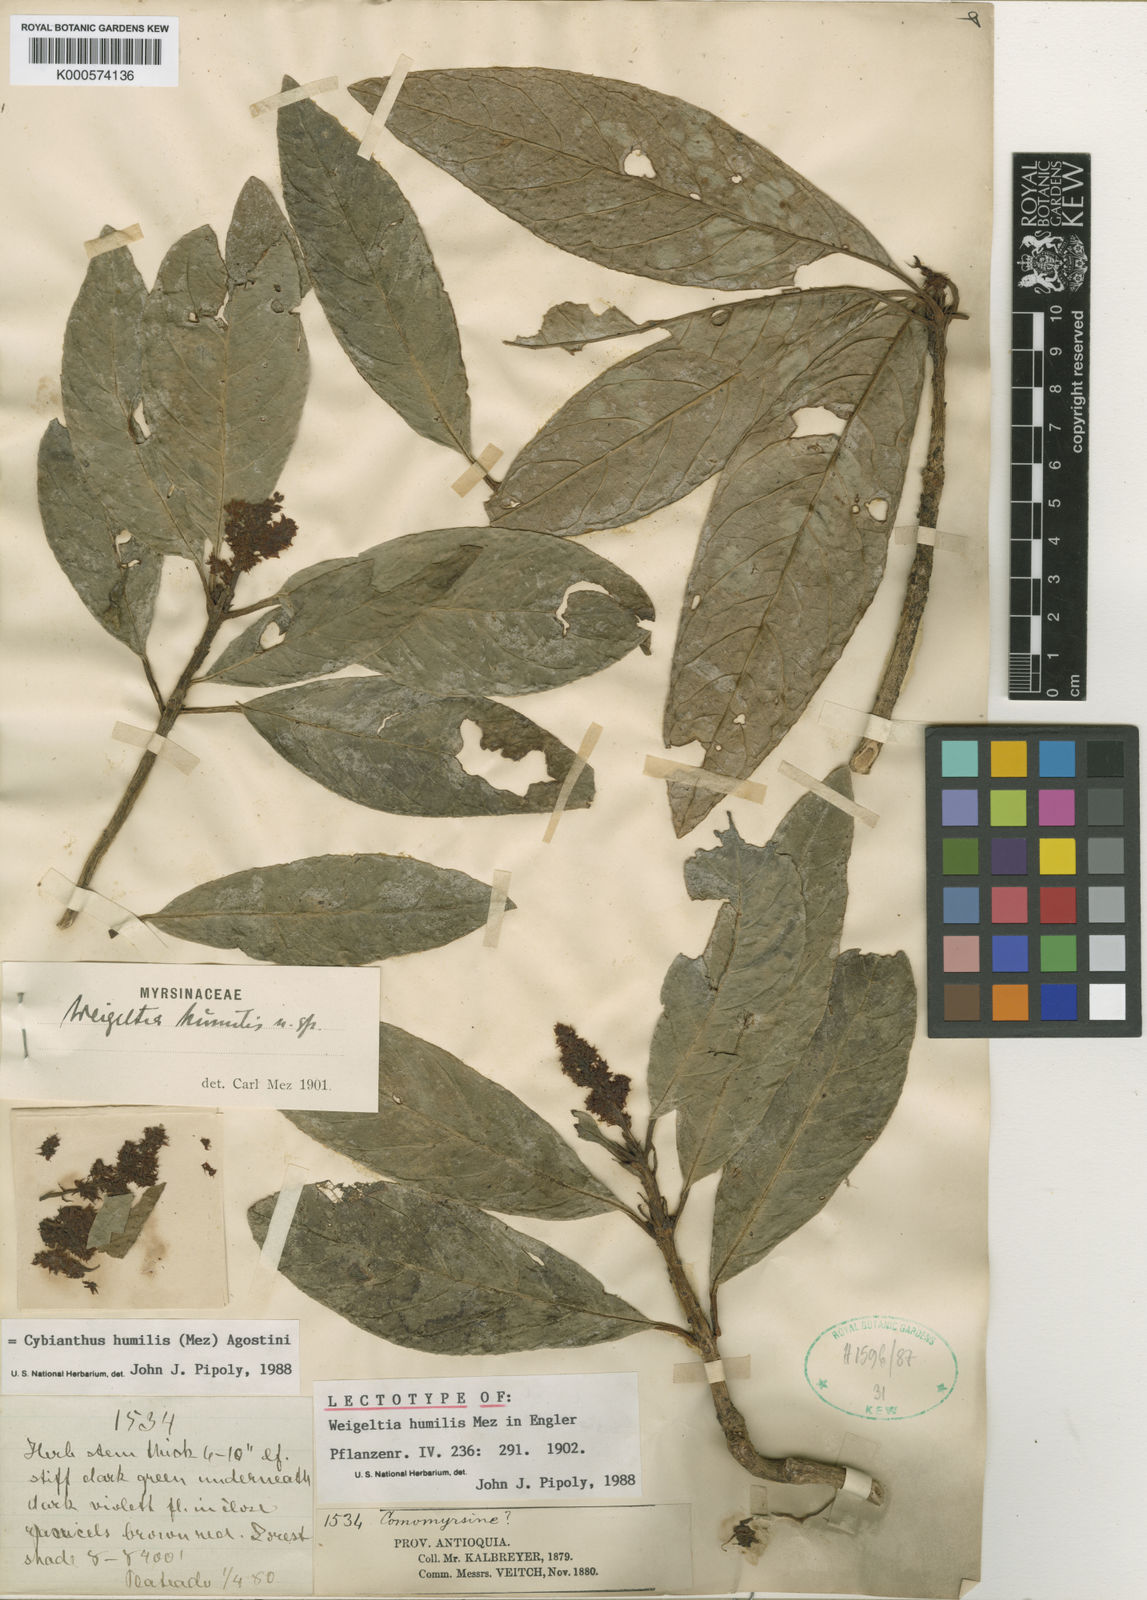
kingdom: Plantae
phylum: Tracheophyta
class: Magnoliopsida
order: Ericales
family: Primulaceae
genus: Cybianthus
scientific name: Cybianthus humilis
